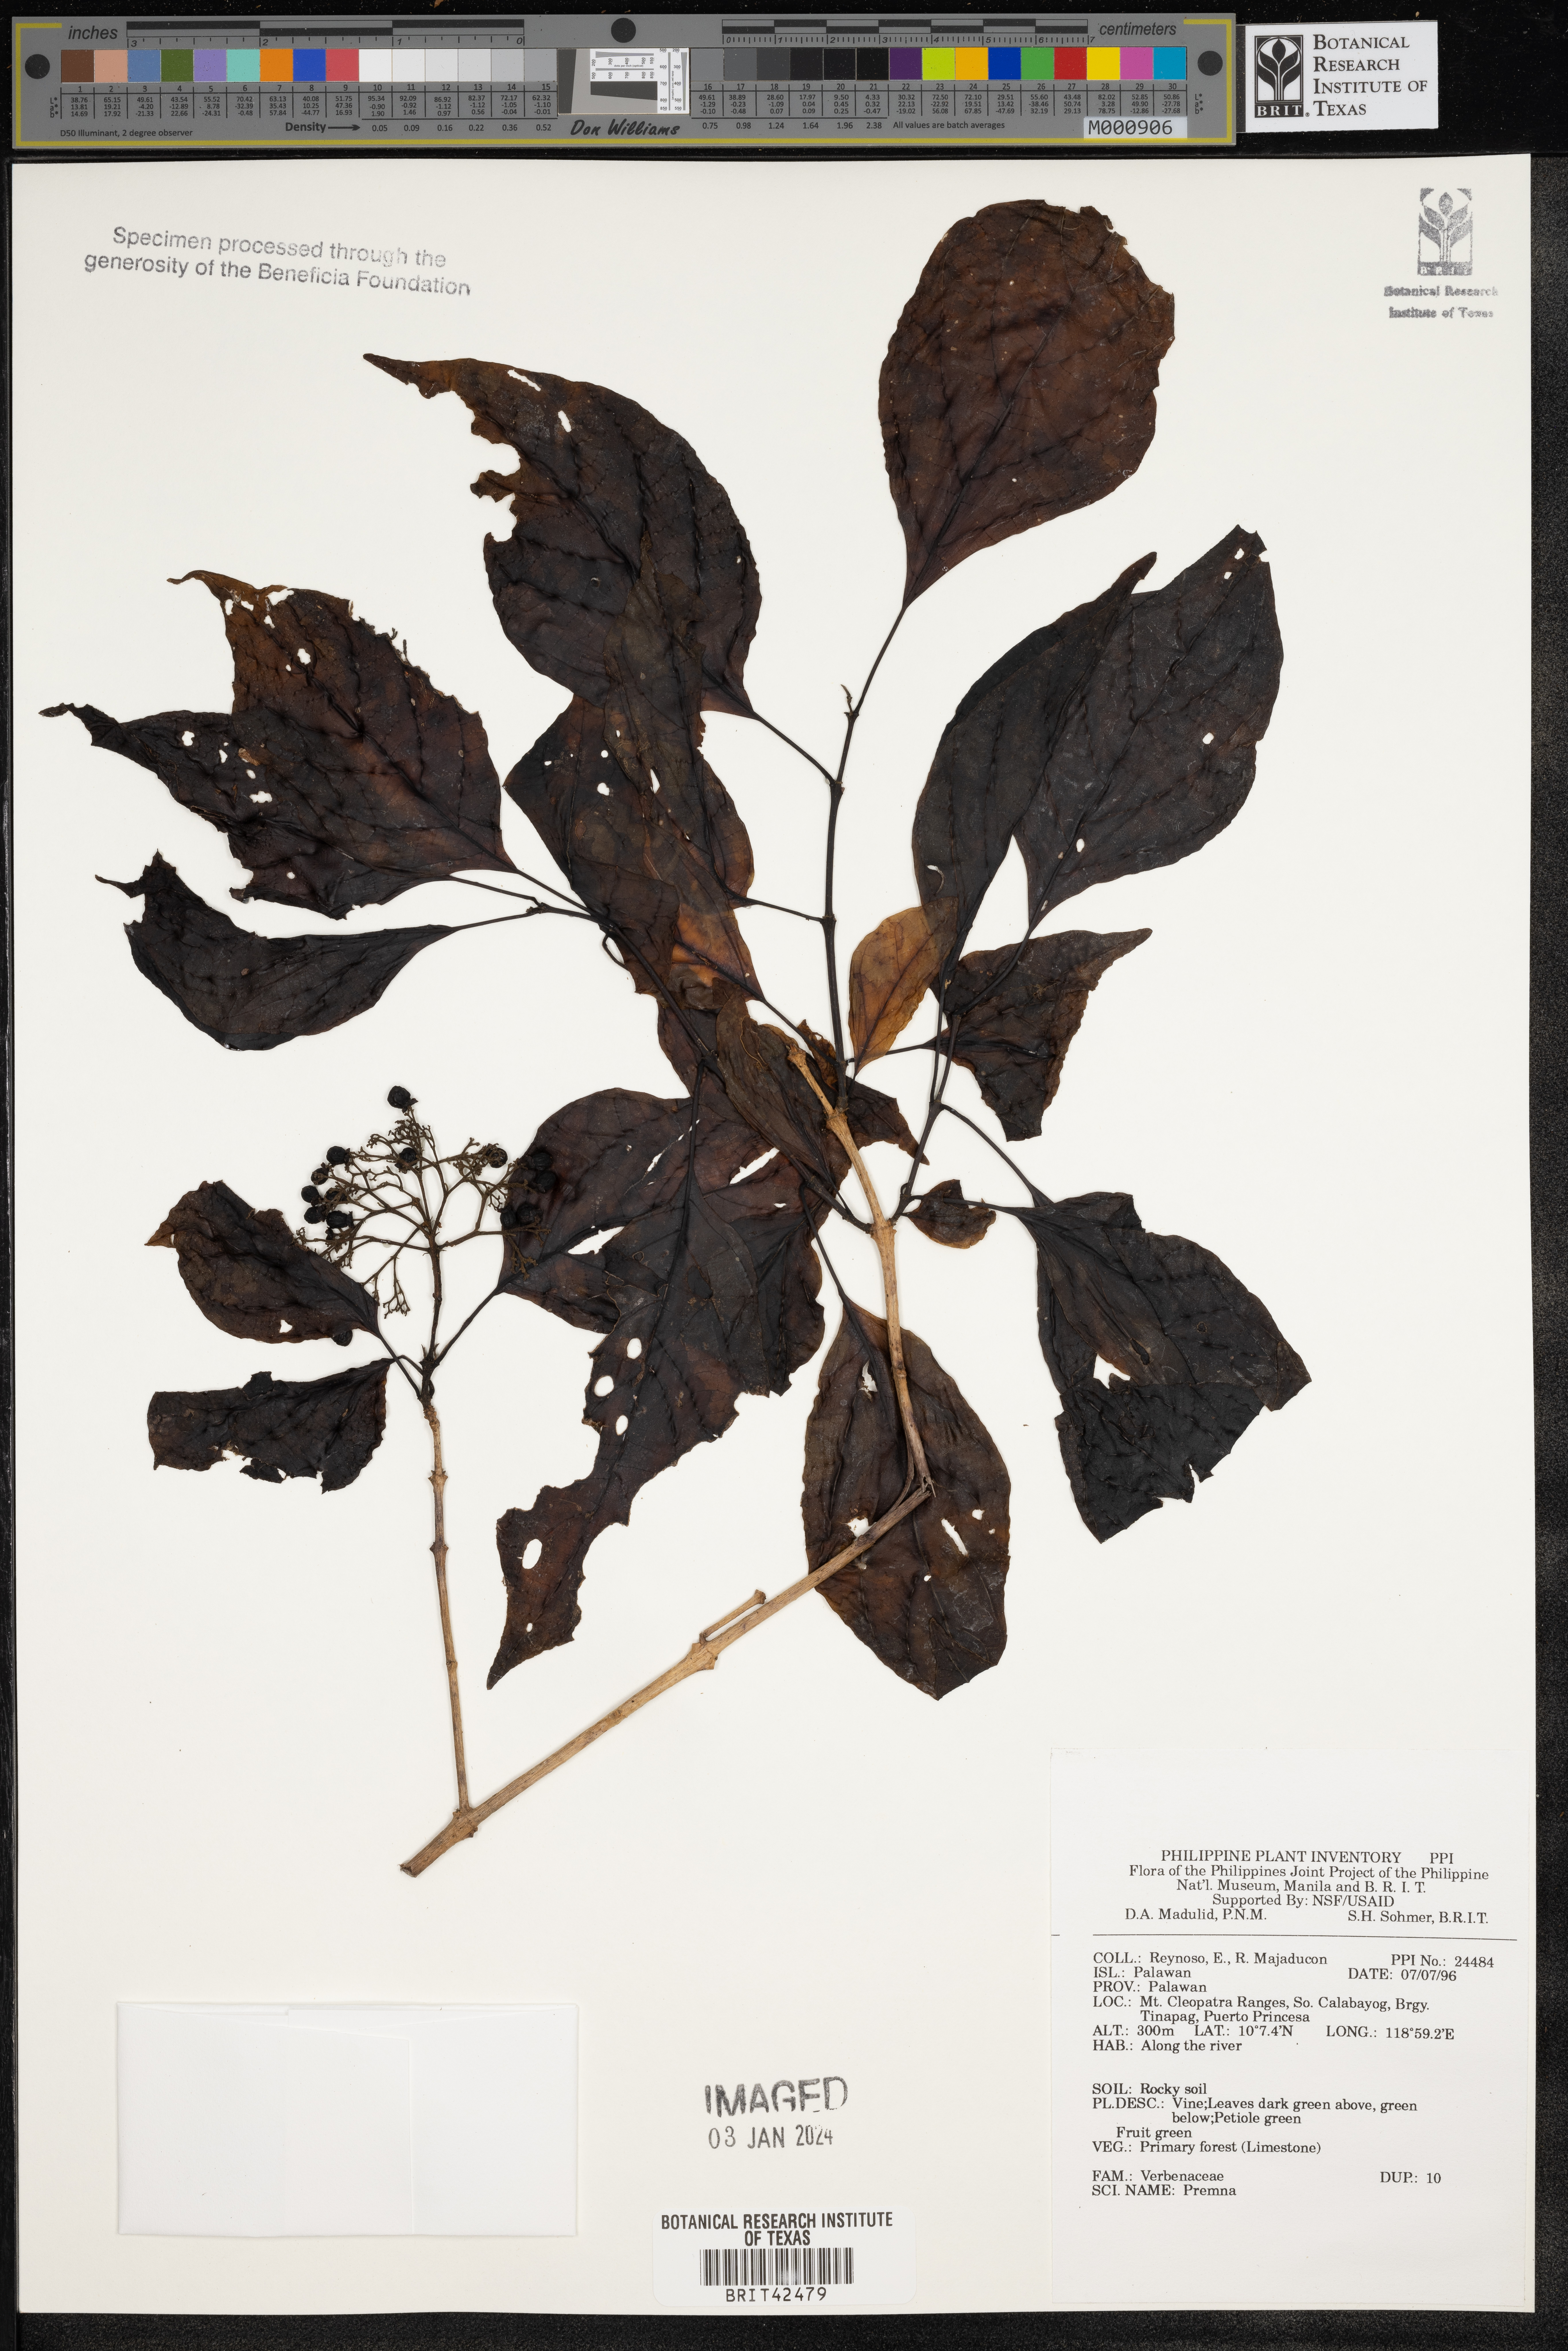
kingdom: Plantae
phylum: Tracheophyta
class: Magnoliopsida
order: Lamiales
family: Lamiaceae
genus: Premna
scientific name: Premna
